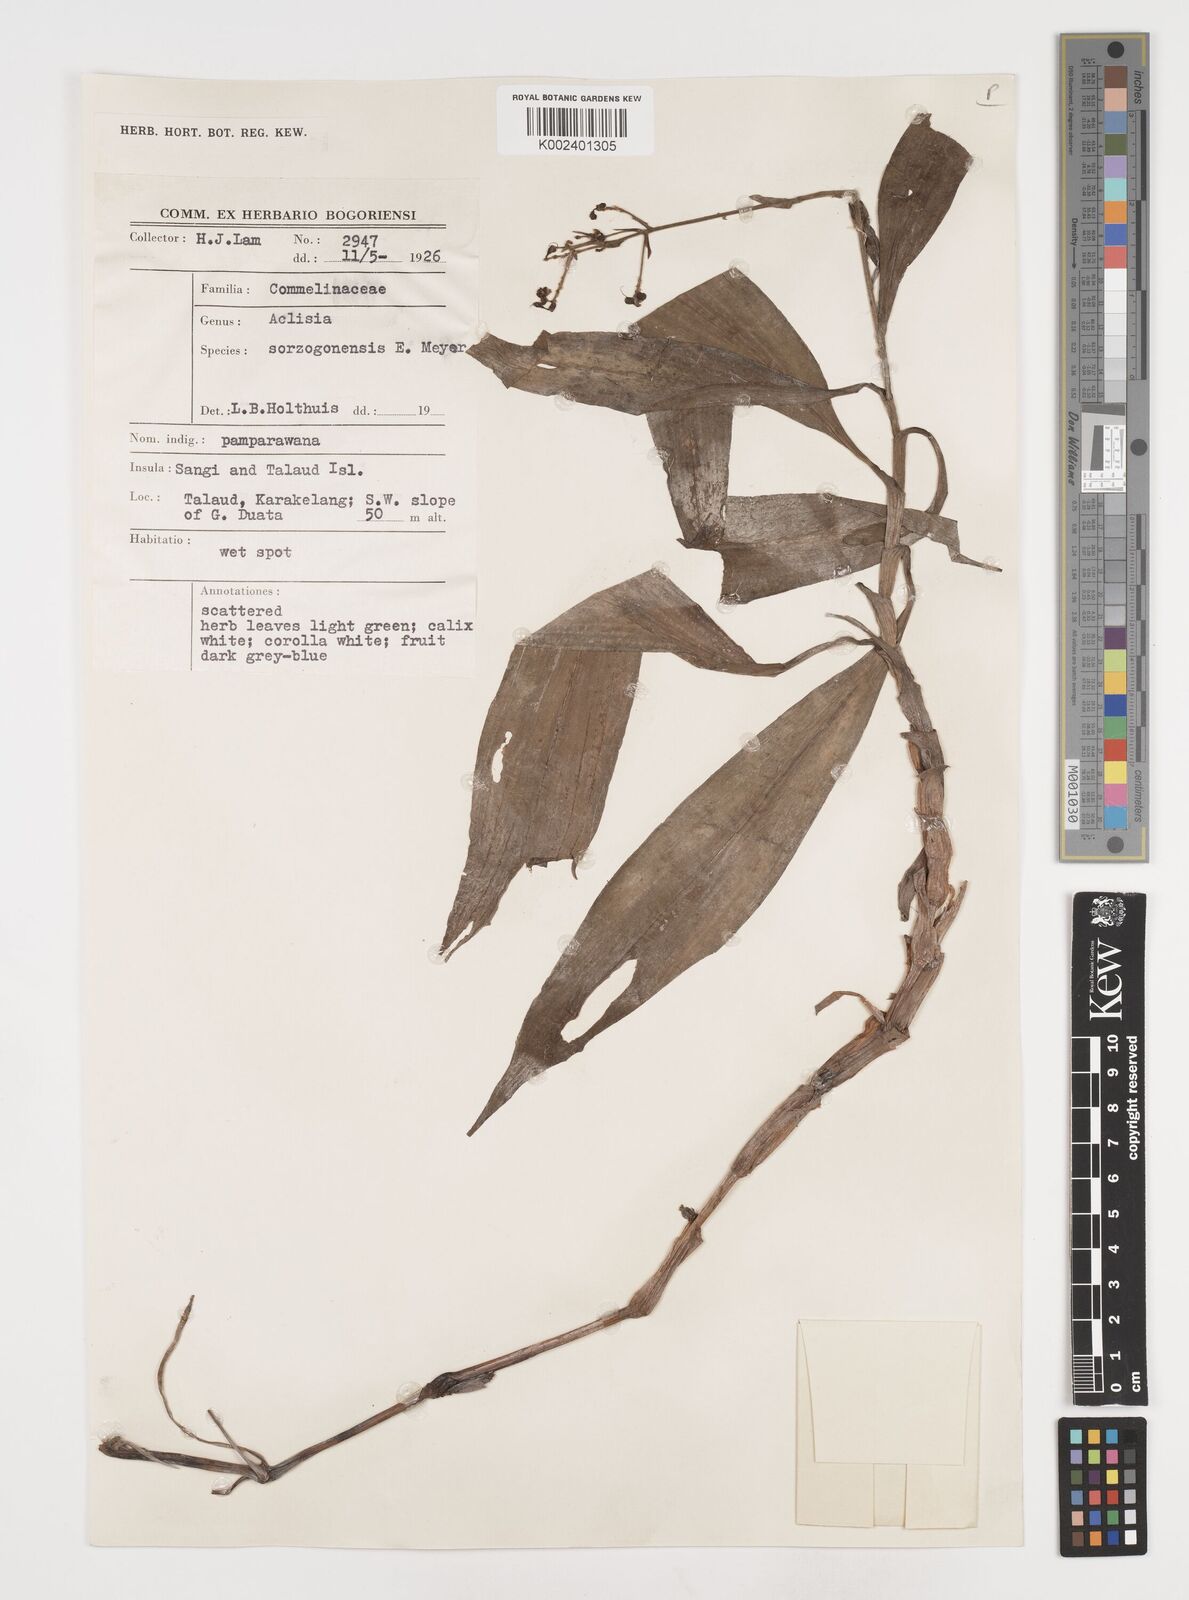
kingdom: Plantae
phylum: Tracheophyta
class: Liliopsida
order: Commelinales
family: Commelinaceae
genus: Pollia
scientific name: Pollia secundiflora
